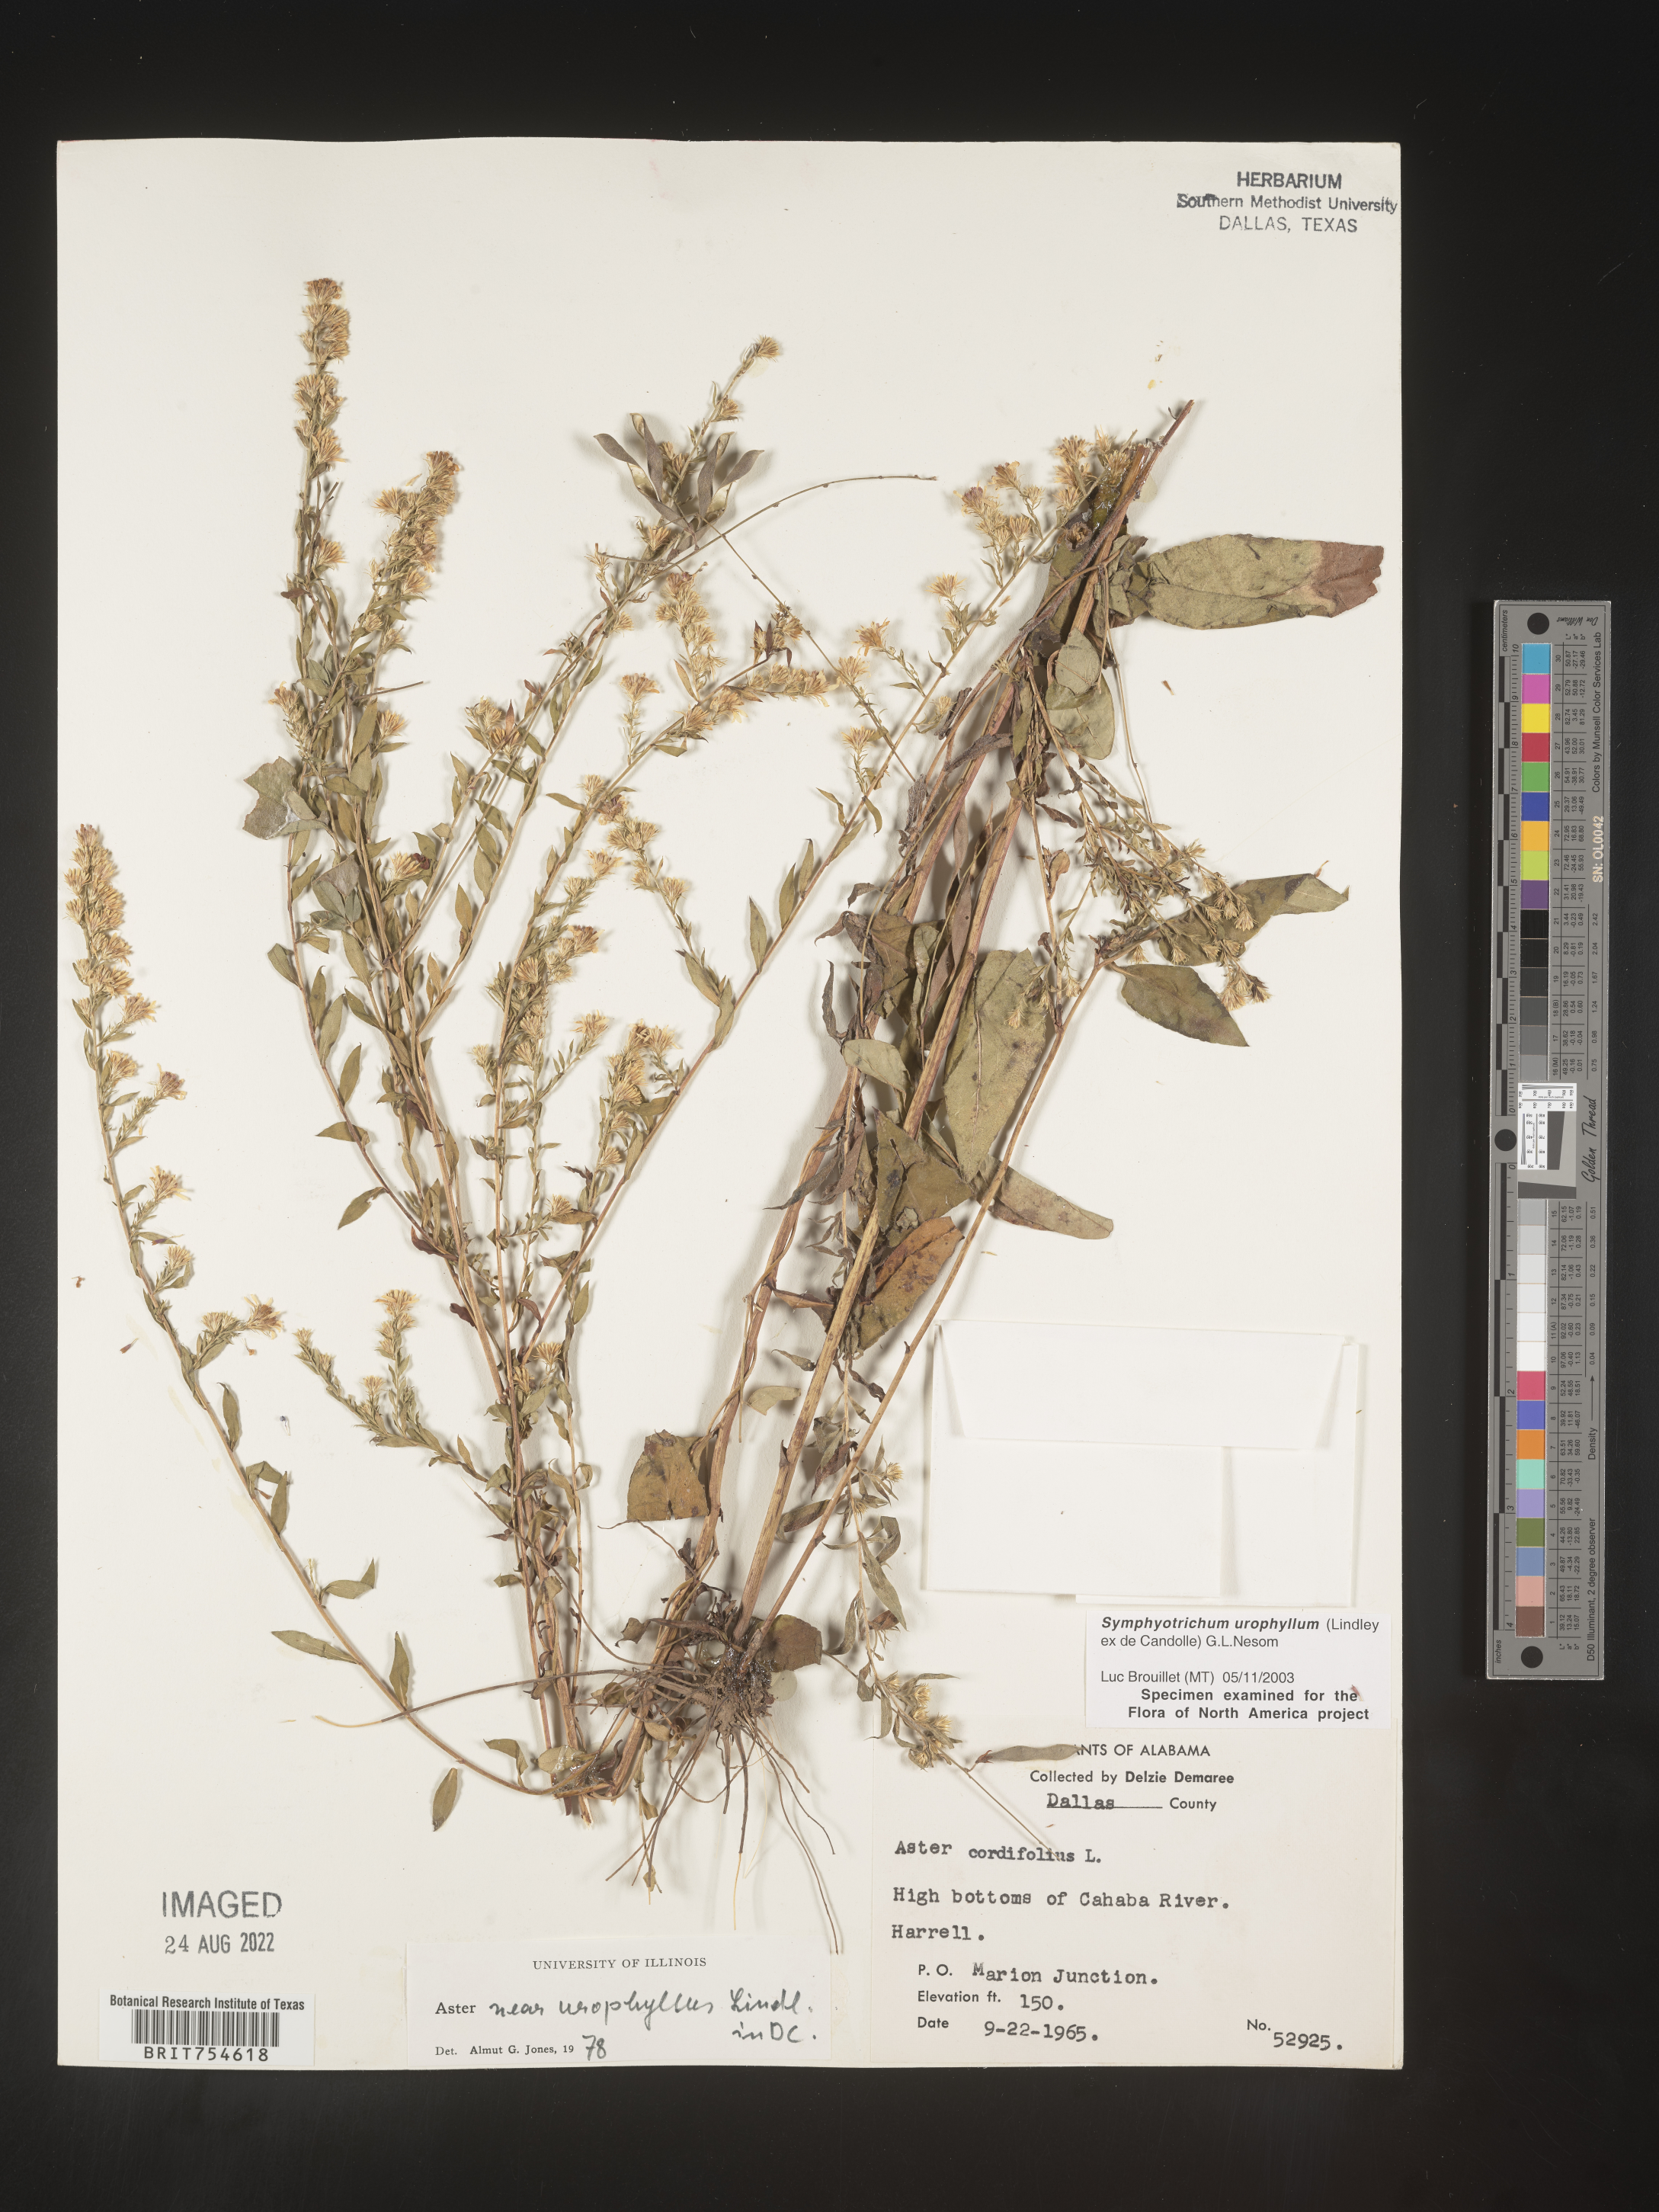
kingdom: Plantae
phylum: Tracheophyta
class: Magnoliopsida
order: Asterales
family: Asteraceae
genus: Symphyotrichum
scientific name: Symphyotrichum urophyllum
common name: Arrow-leaved aster
